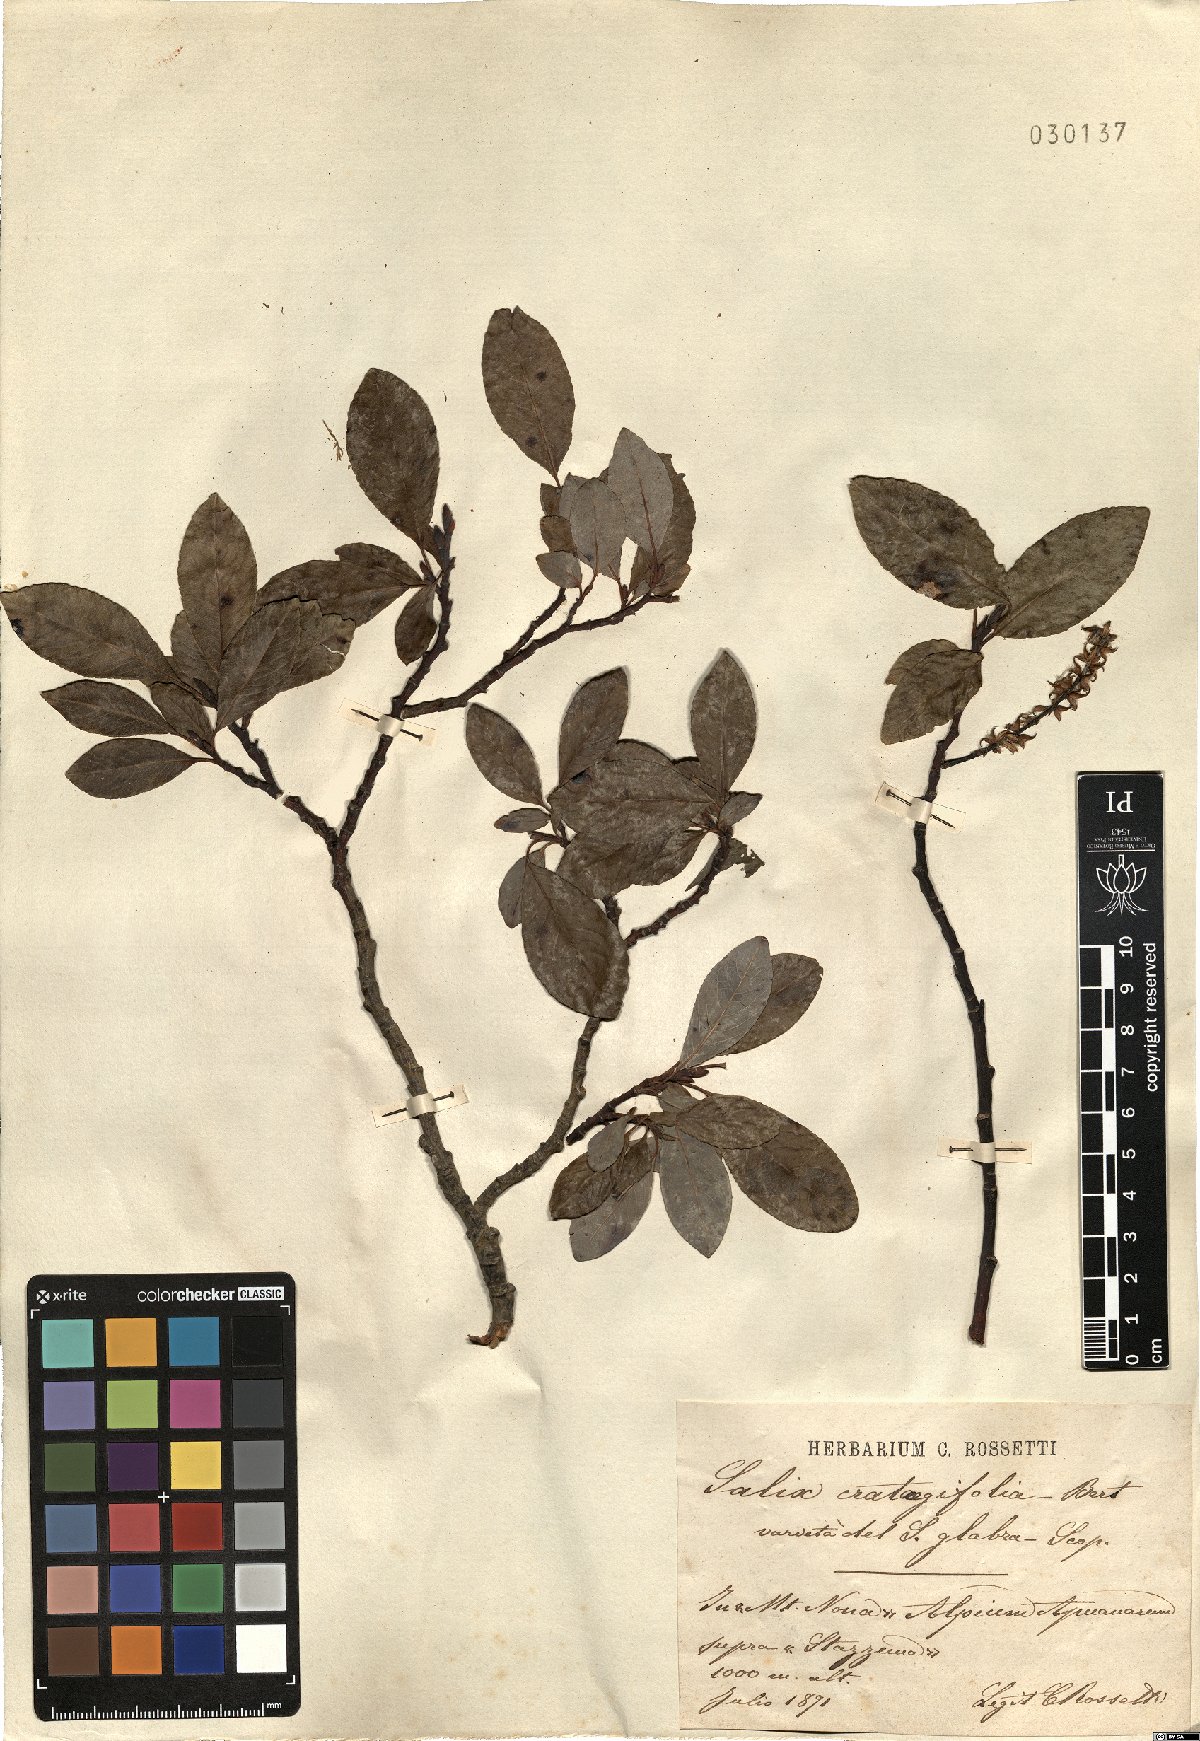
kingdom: Plantae
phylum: Tracheophyta
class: Magnoliopsida
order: Malpighiales
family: Salicaceae
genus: Salix
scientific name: Salix crataegifolia
